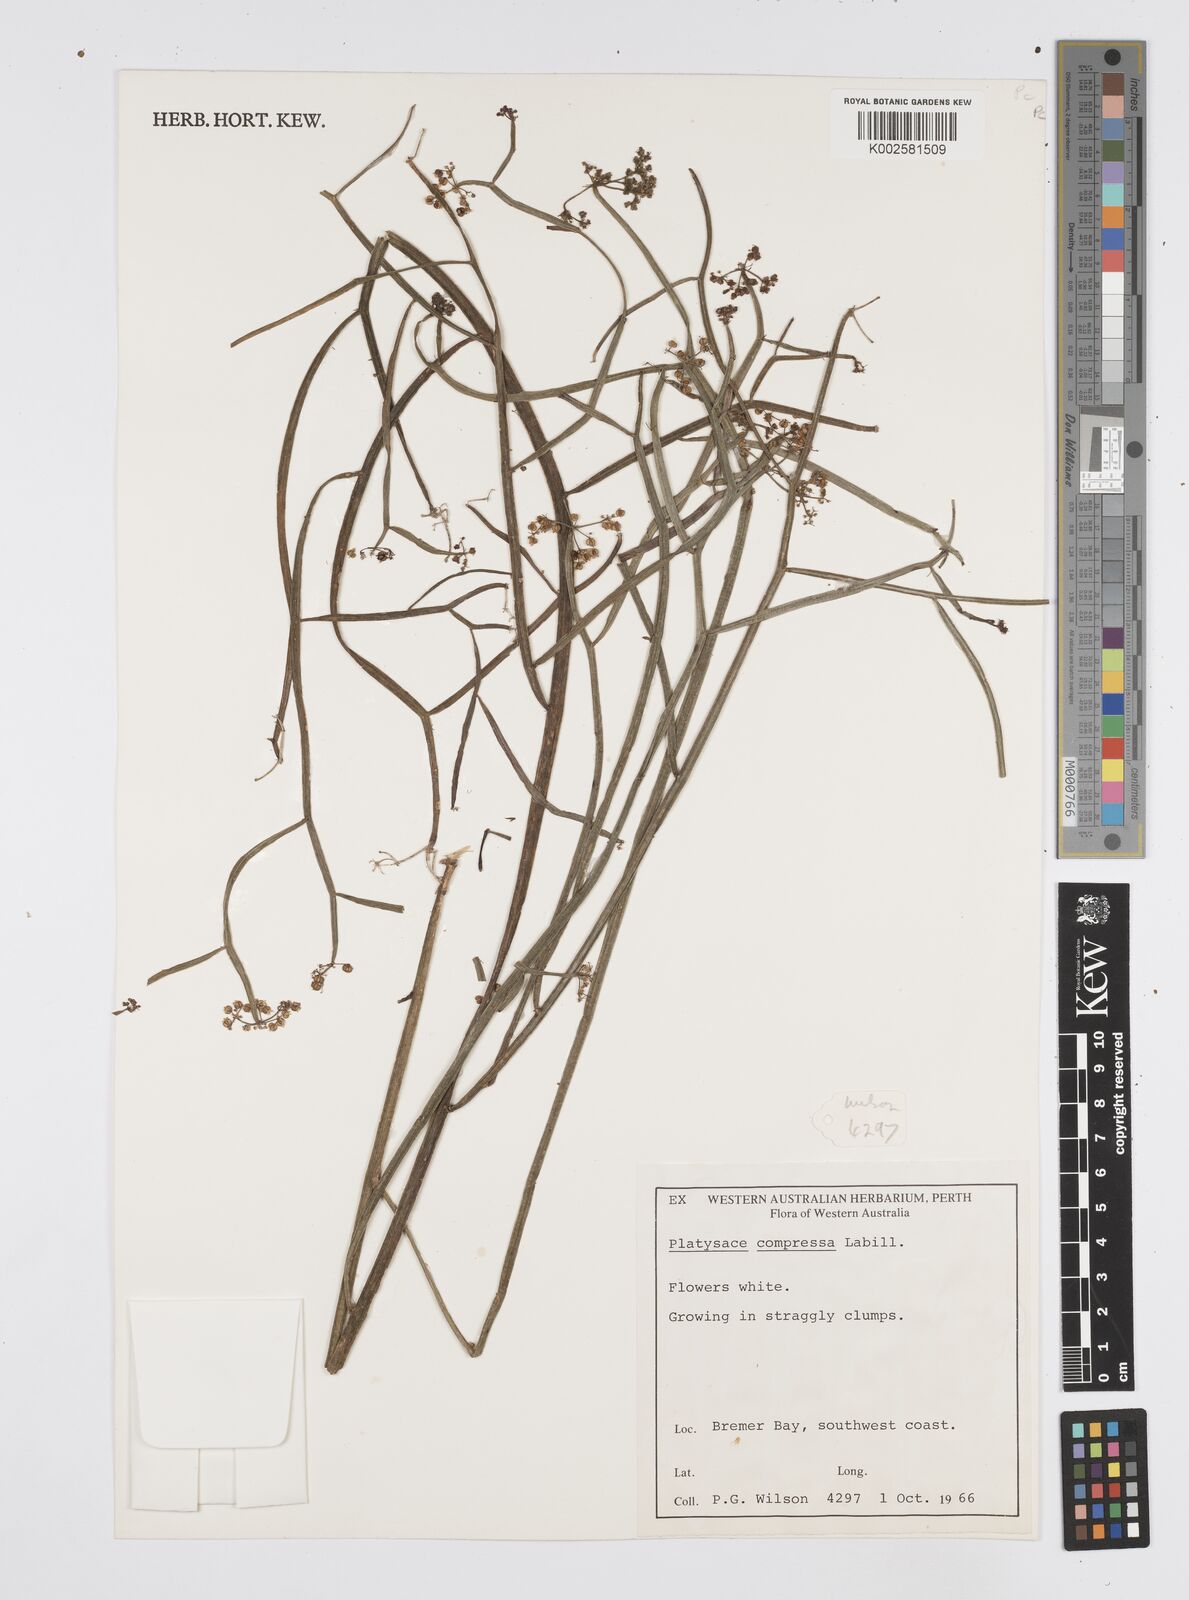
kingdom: Plantae
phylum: Tracheophyta
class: Magnoliopsida
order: Apiales
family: Apiaceae
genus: Centella
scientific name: Centella
